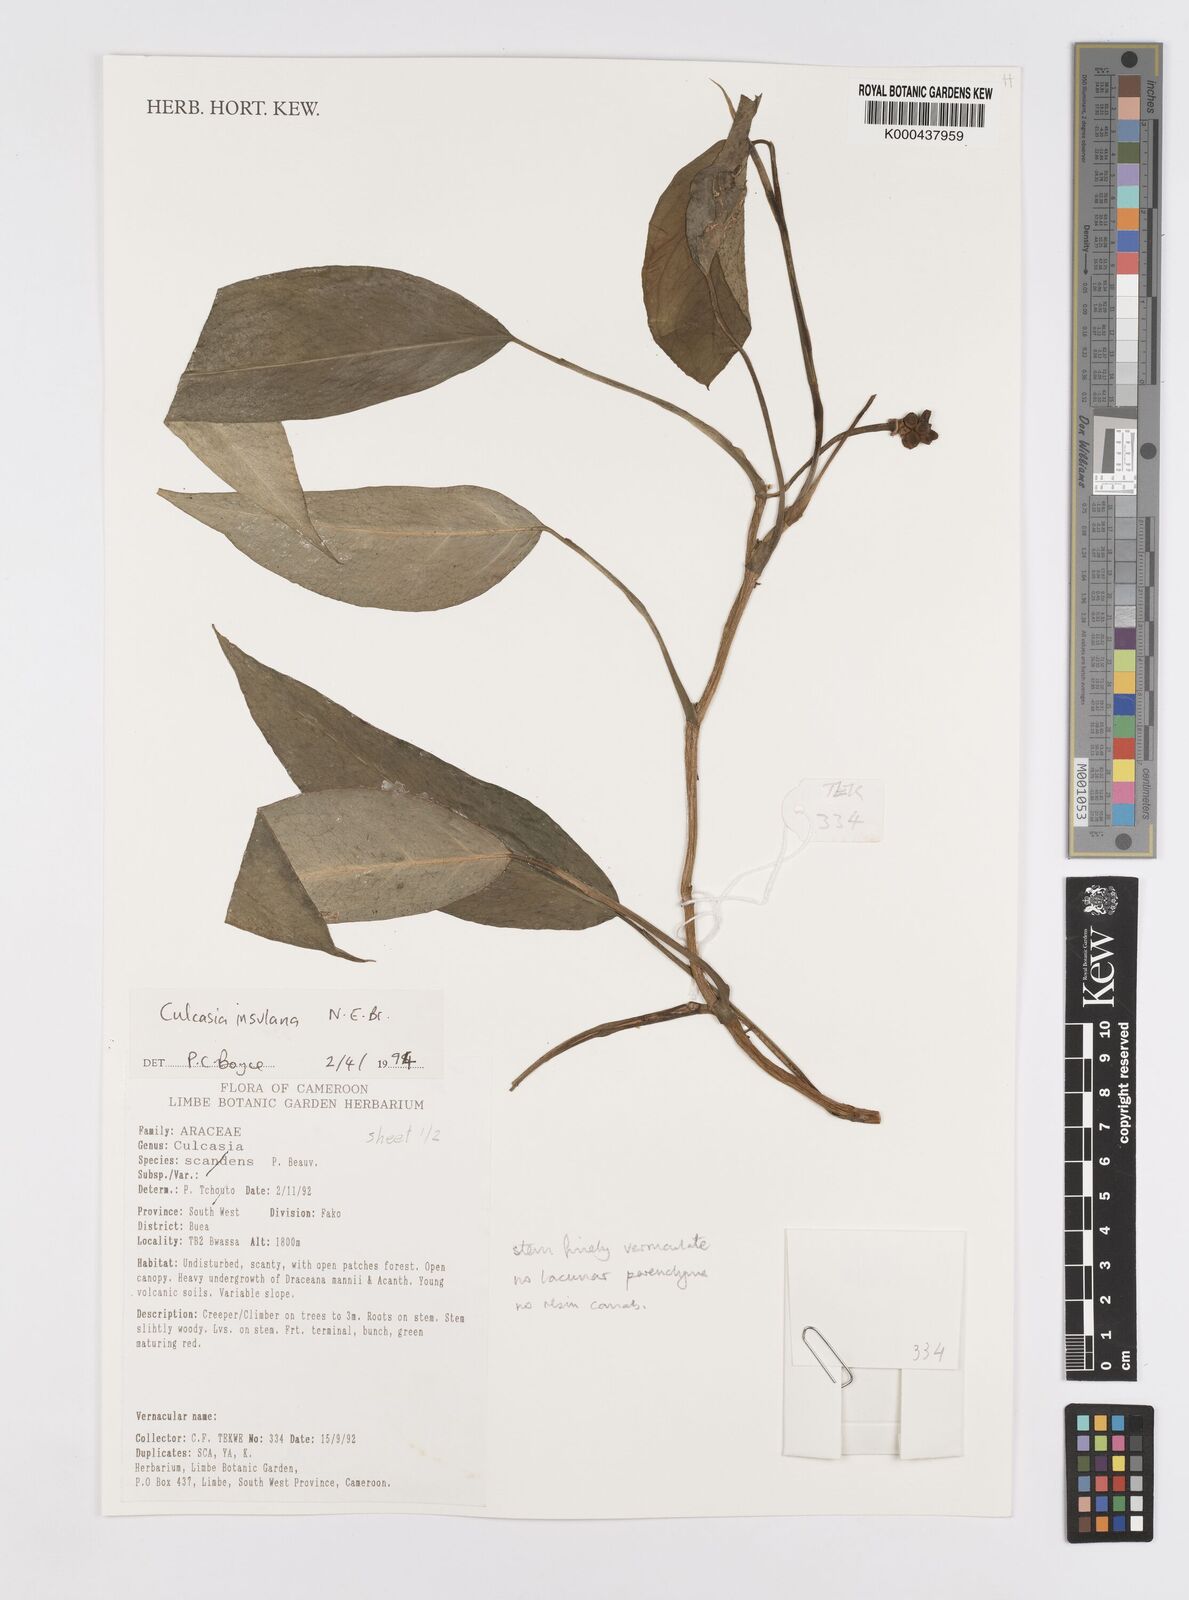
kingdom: Plantae
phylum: Tracheophyta
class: Liliopsida
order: Alismatales
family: Araceae
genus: Culcasia
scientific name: Culcasia insulana
